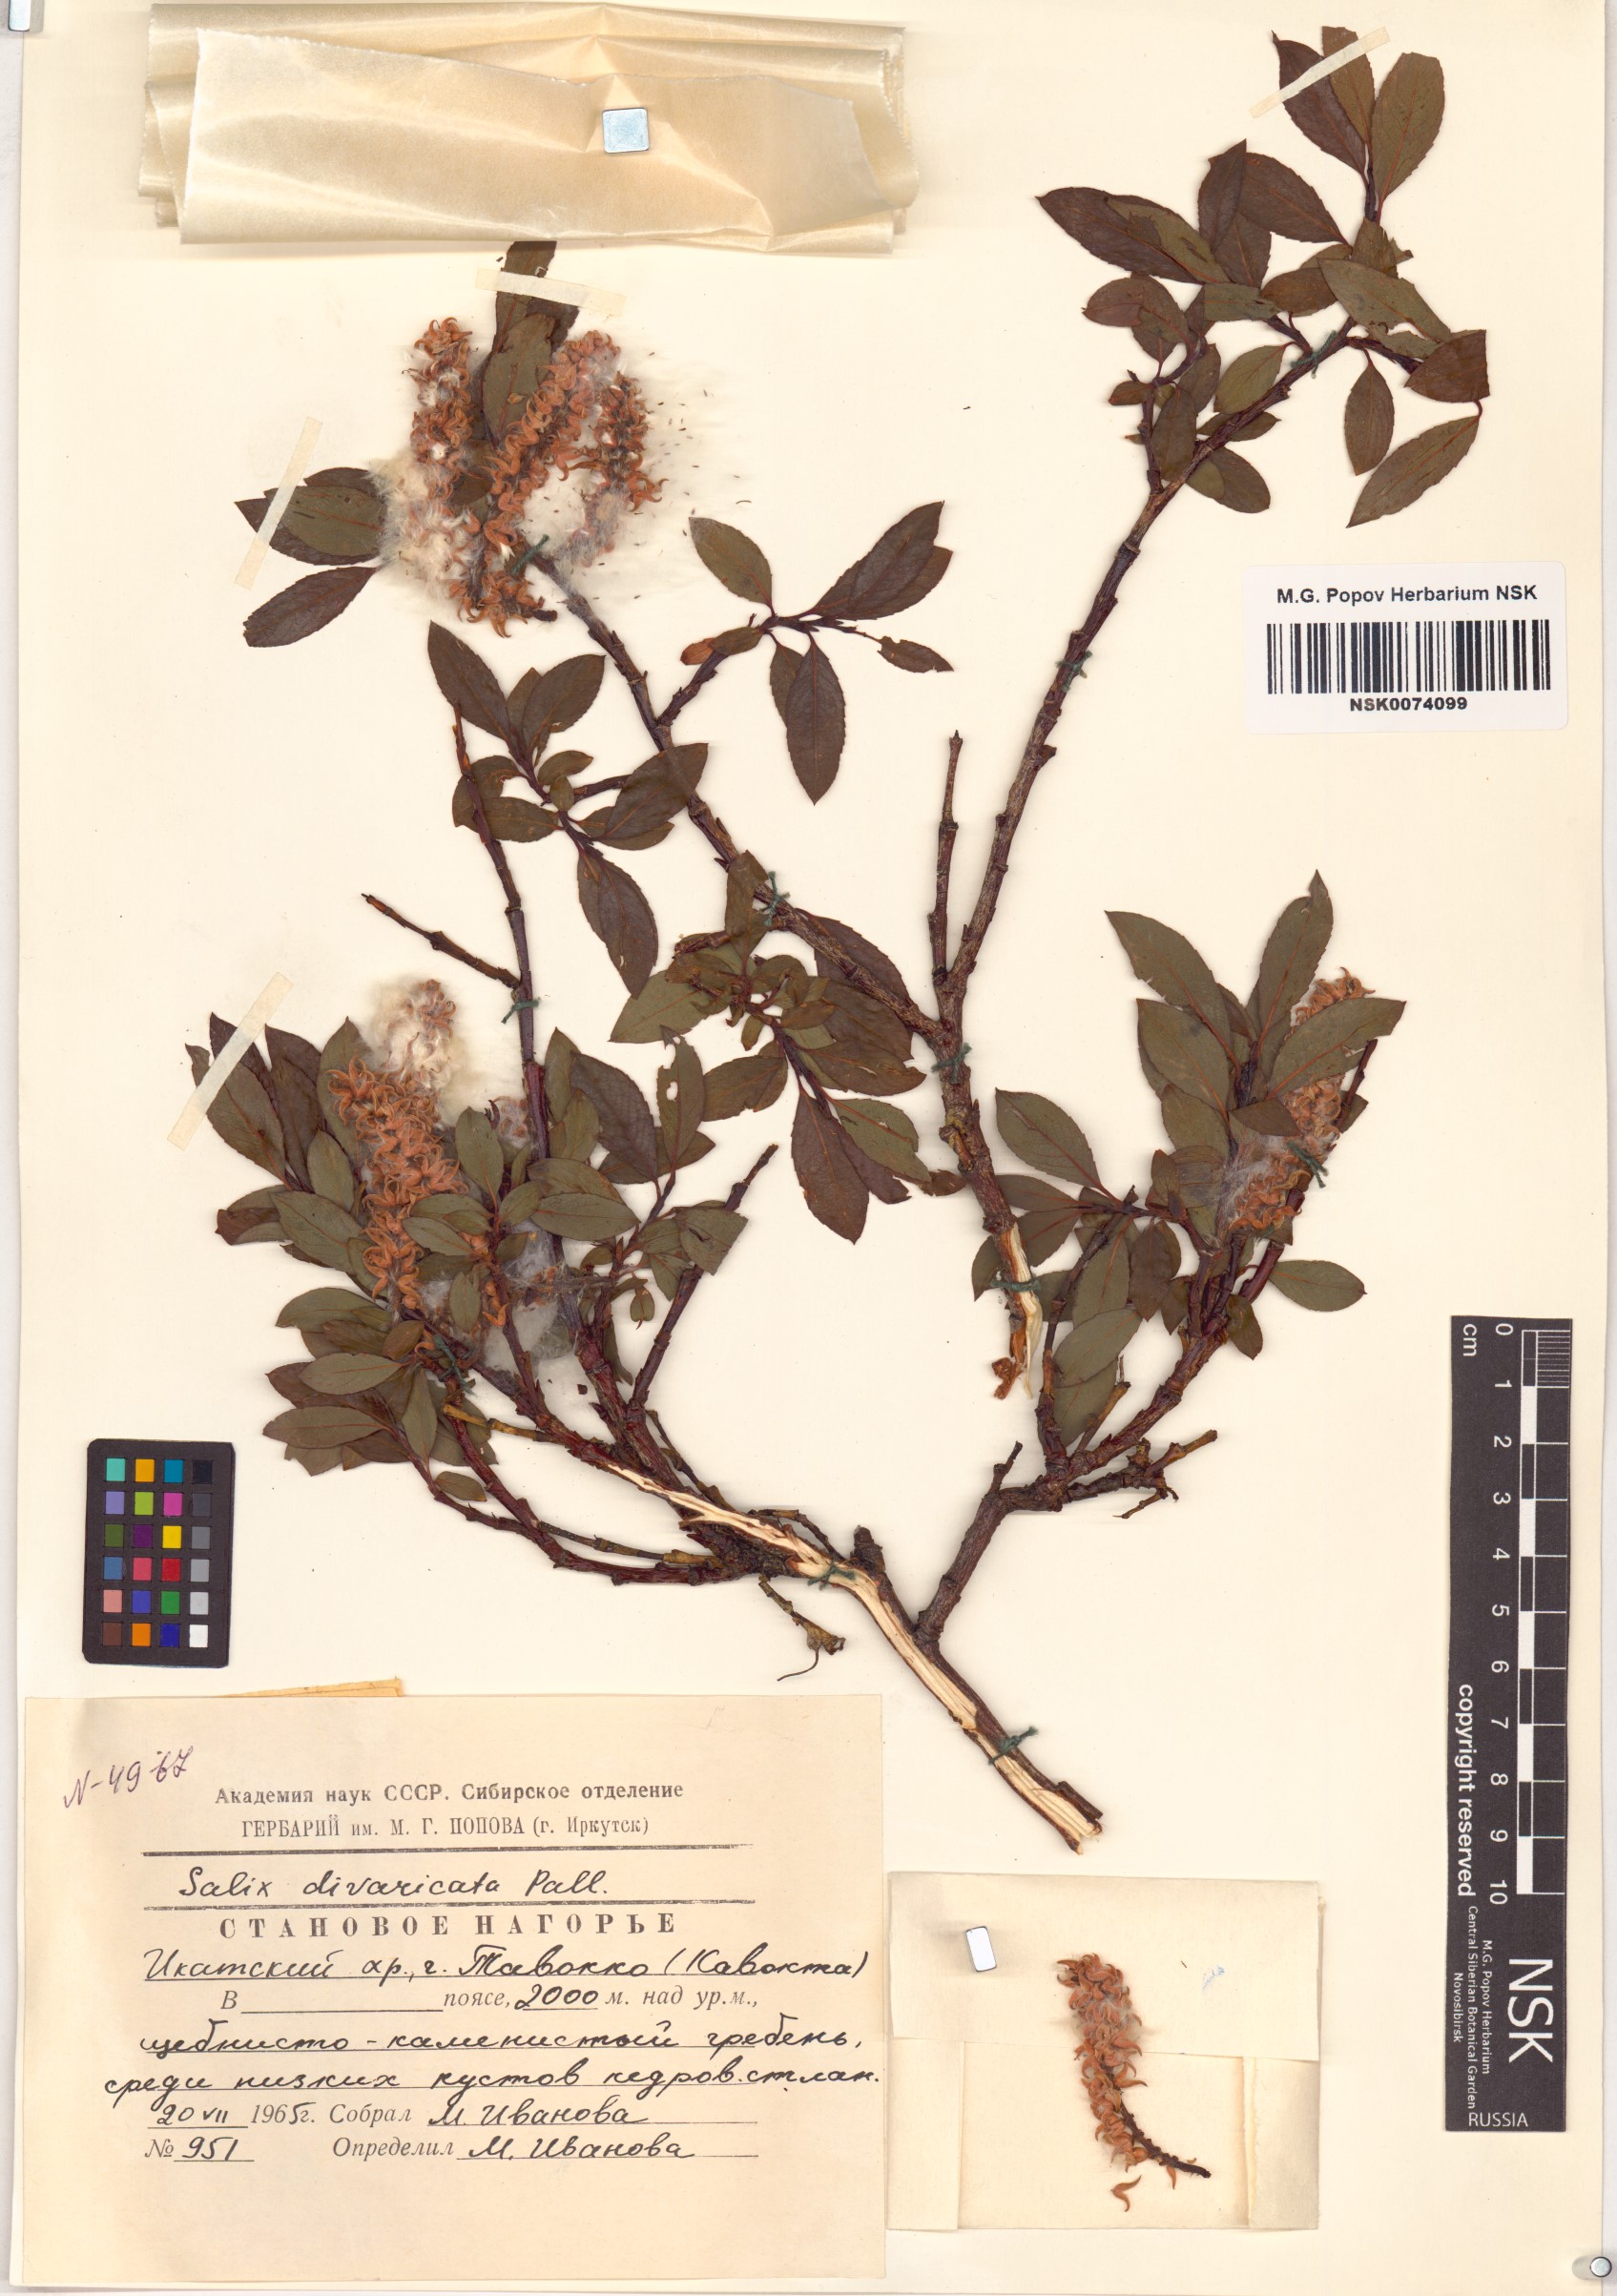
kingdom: Plantae
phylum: Tracheophyta
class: Magnoliopsida
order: Malpighiales
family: Salicaceae
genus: Salix
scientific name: Salix divaricata
